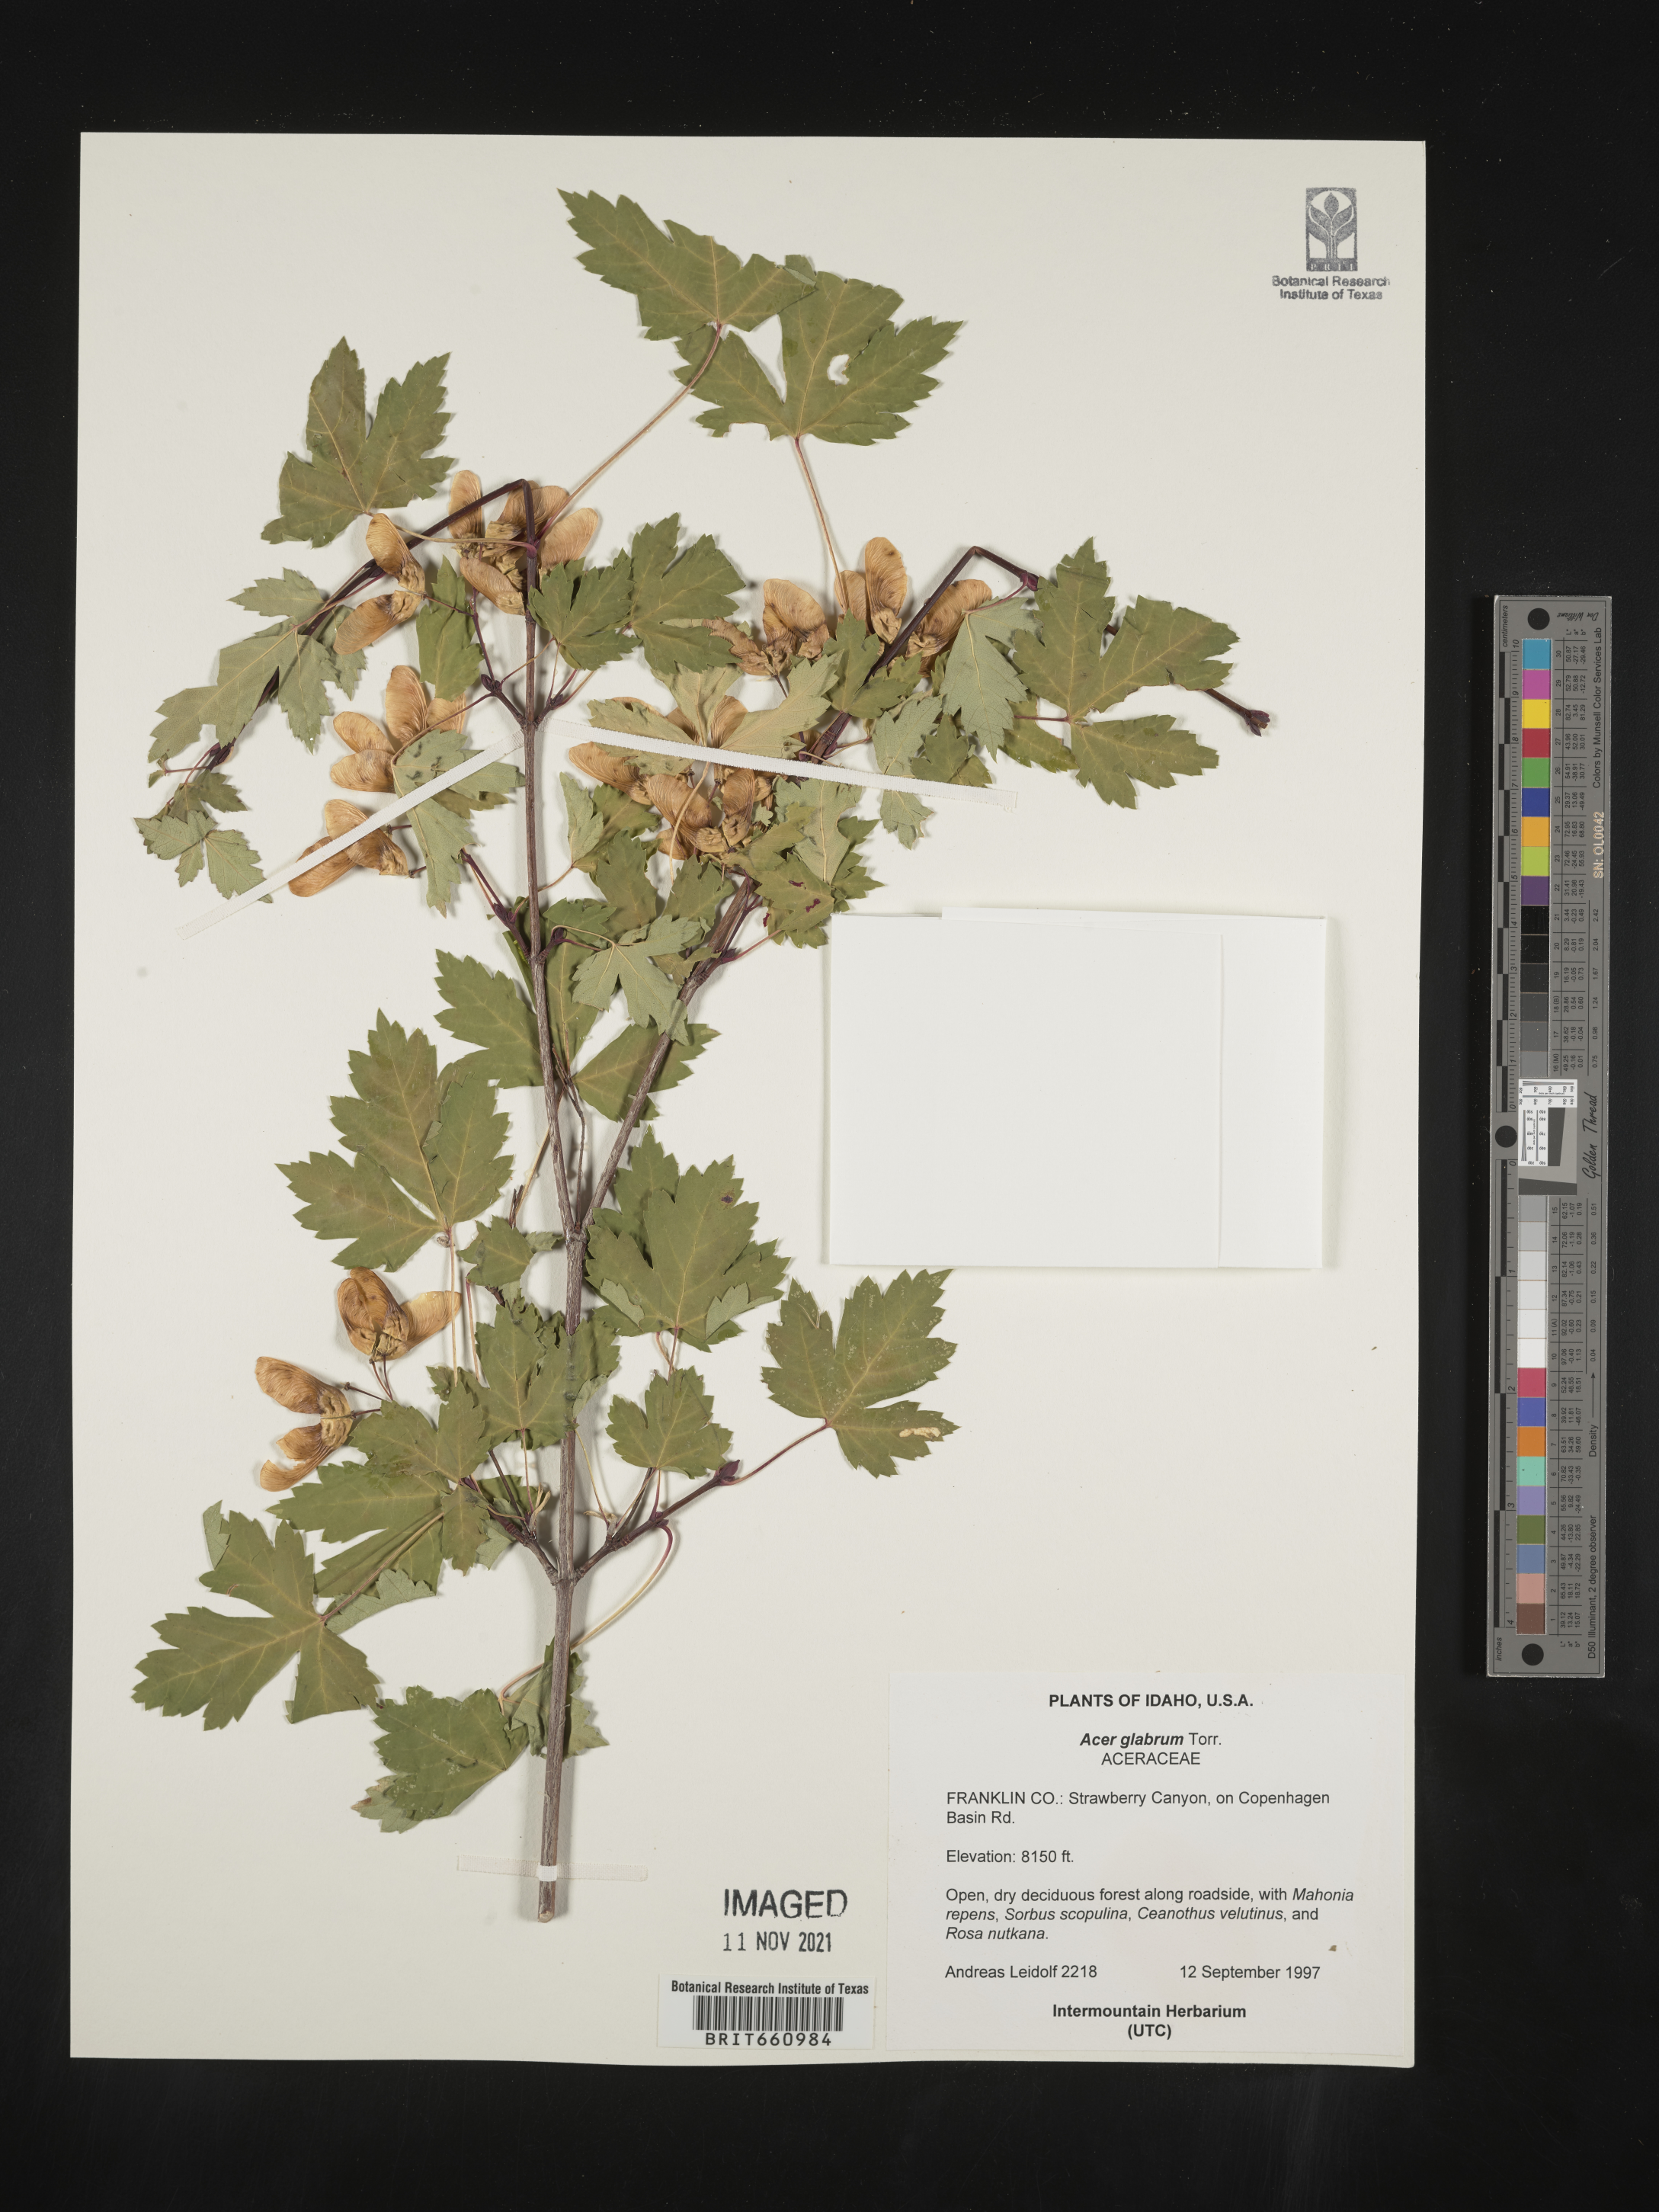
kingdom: Plantae
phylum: Tracheophyta
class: Magnoliopsida
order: Sapindales
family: Sapindaceae
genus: Acer
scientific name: Acer glabrum
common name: Rocky mountain maple
